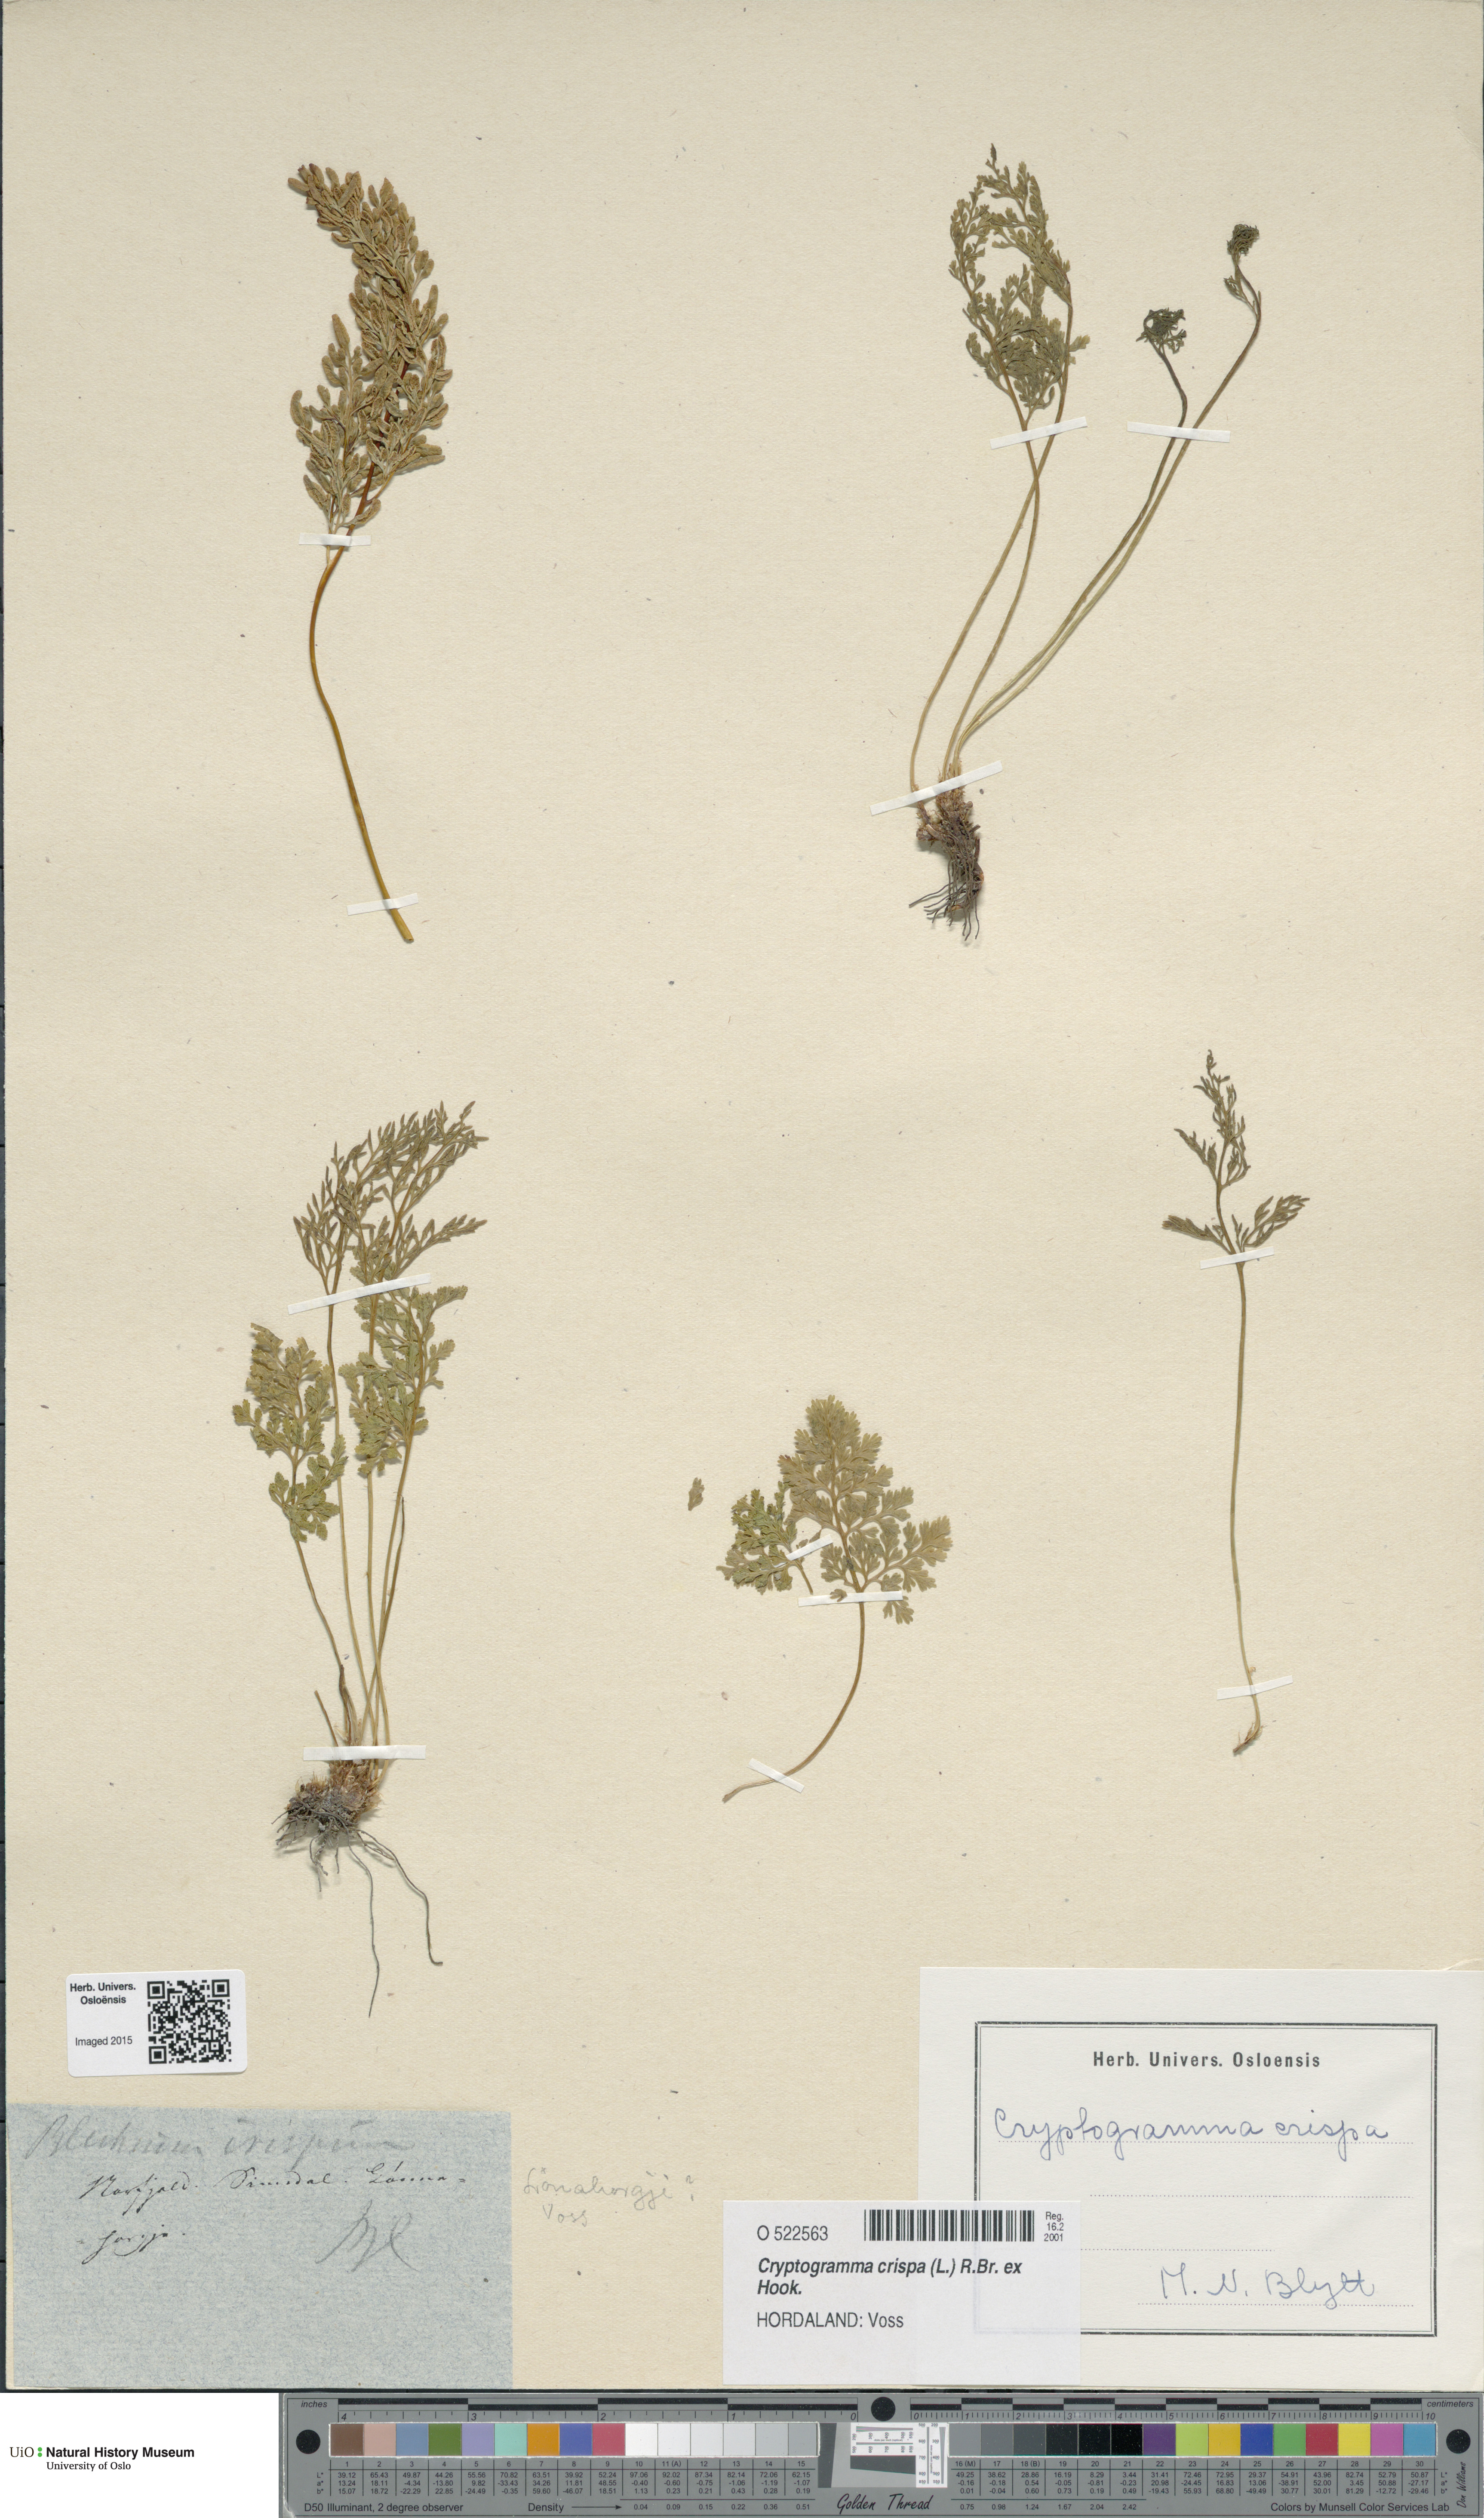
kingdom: Plantae
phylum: Tracheophyta
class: Polypodiopsida
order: Polypodiales
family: Pteridaceae
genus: Cryptogramma
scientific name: Cryptogramma crispa
